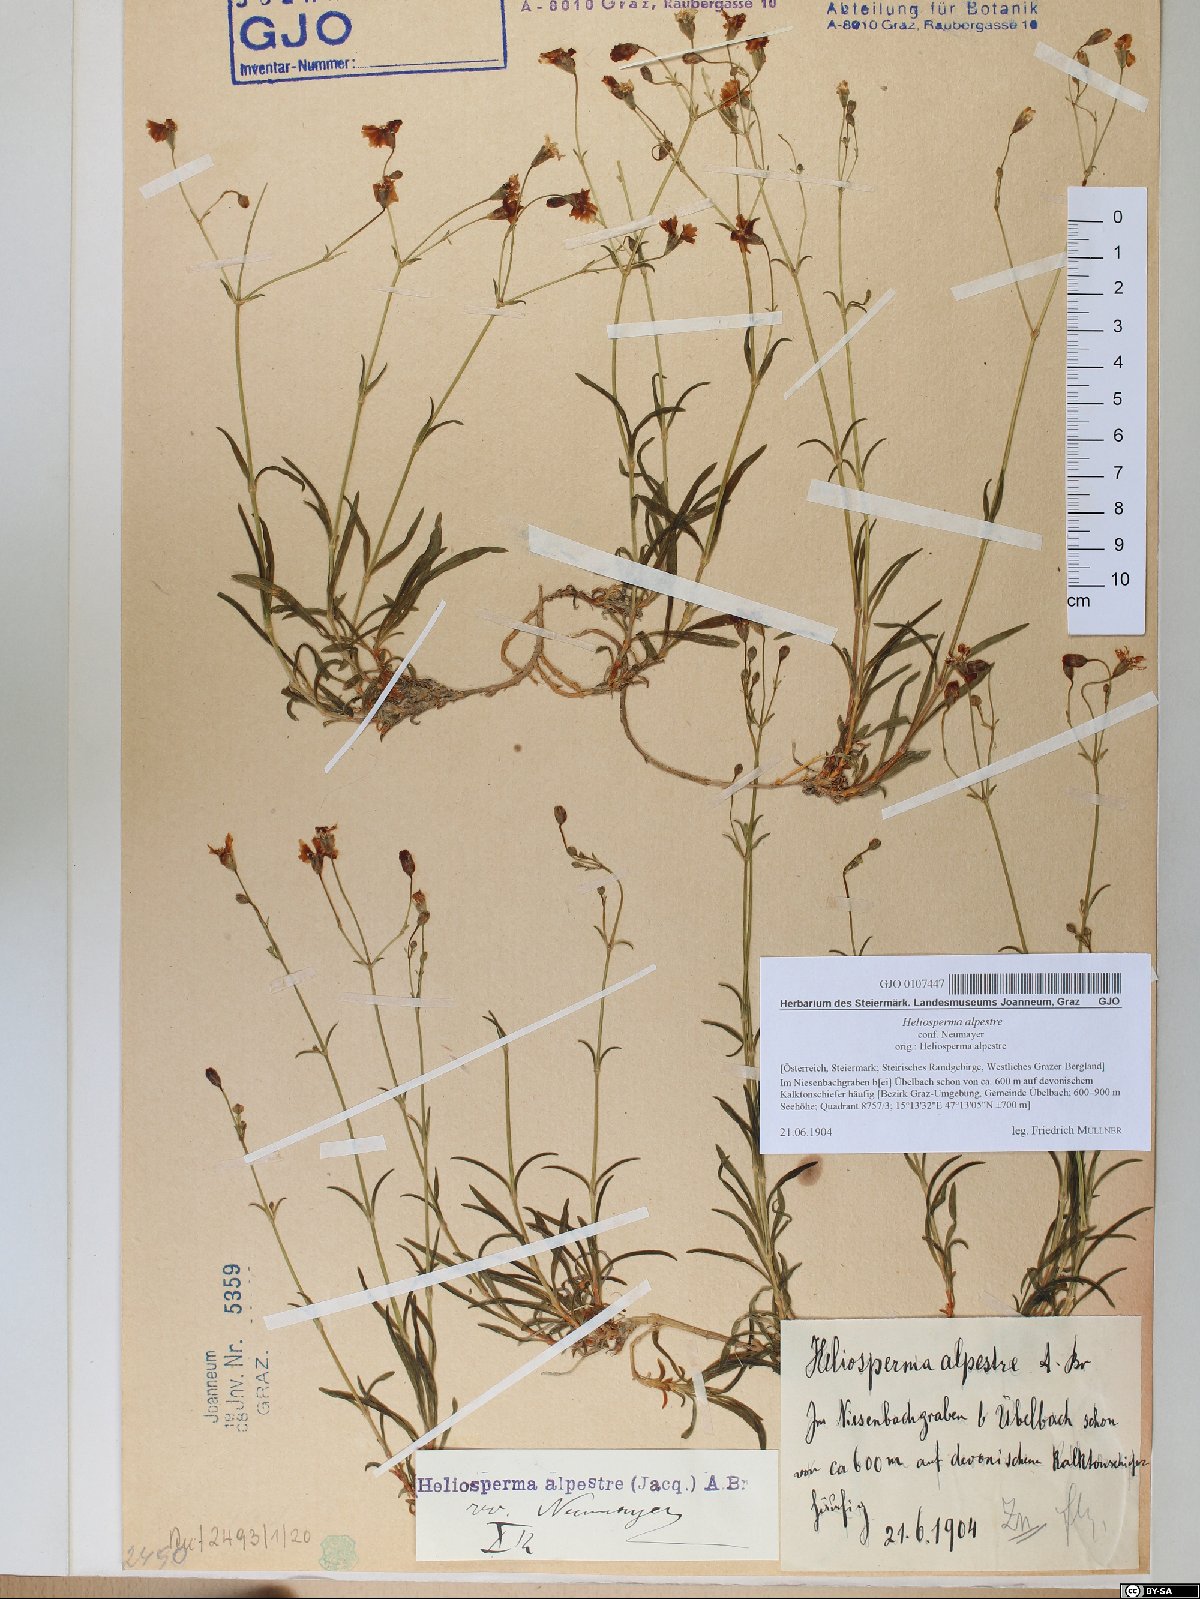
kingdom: Plantae
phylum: Tracheophyta
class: Magnoliopsida
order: Caryophyllales
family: Caryophyllaceae
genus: Heliosperma
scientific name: Heliosperma alpestre
